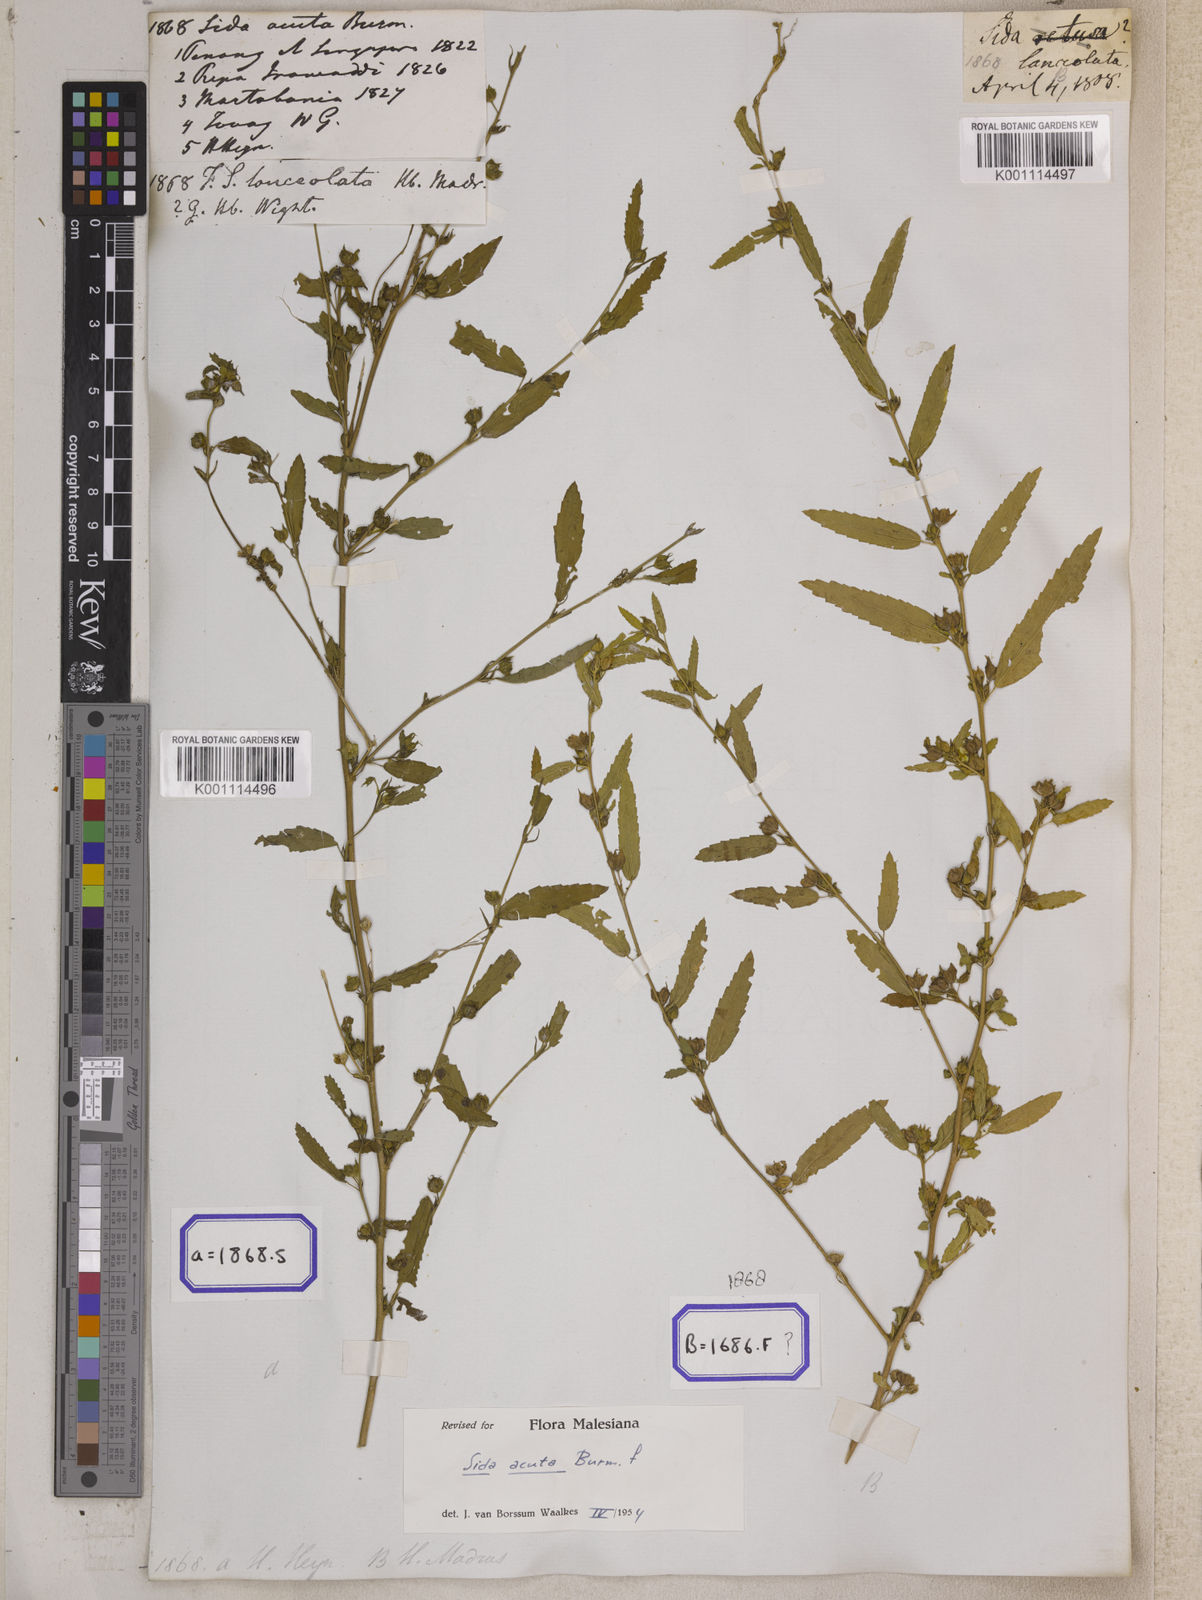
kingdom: Plantae
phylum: Tracheophyta
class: Magnoliopsida
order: Malvales
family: Malvaceae
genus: Sida
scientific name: Sida acuta
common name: Common wireweed
